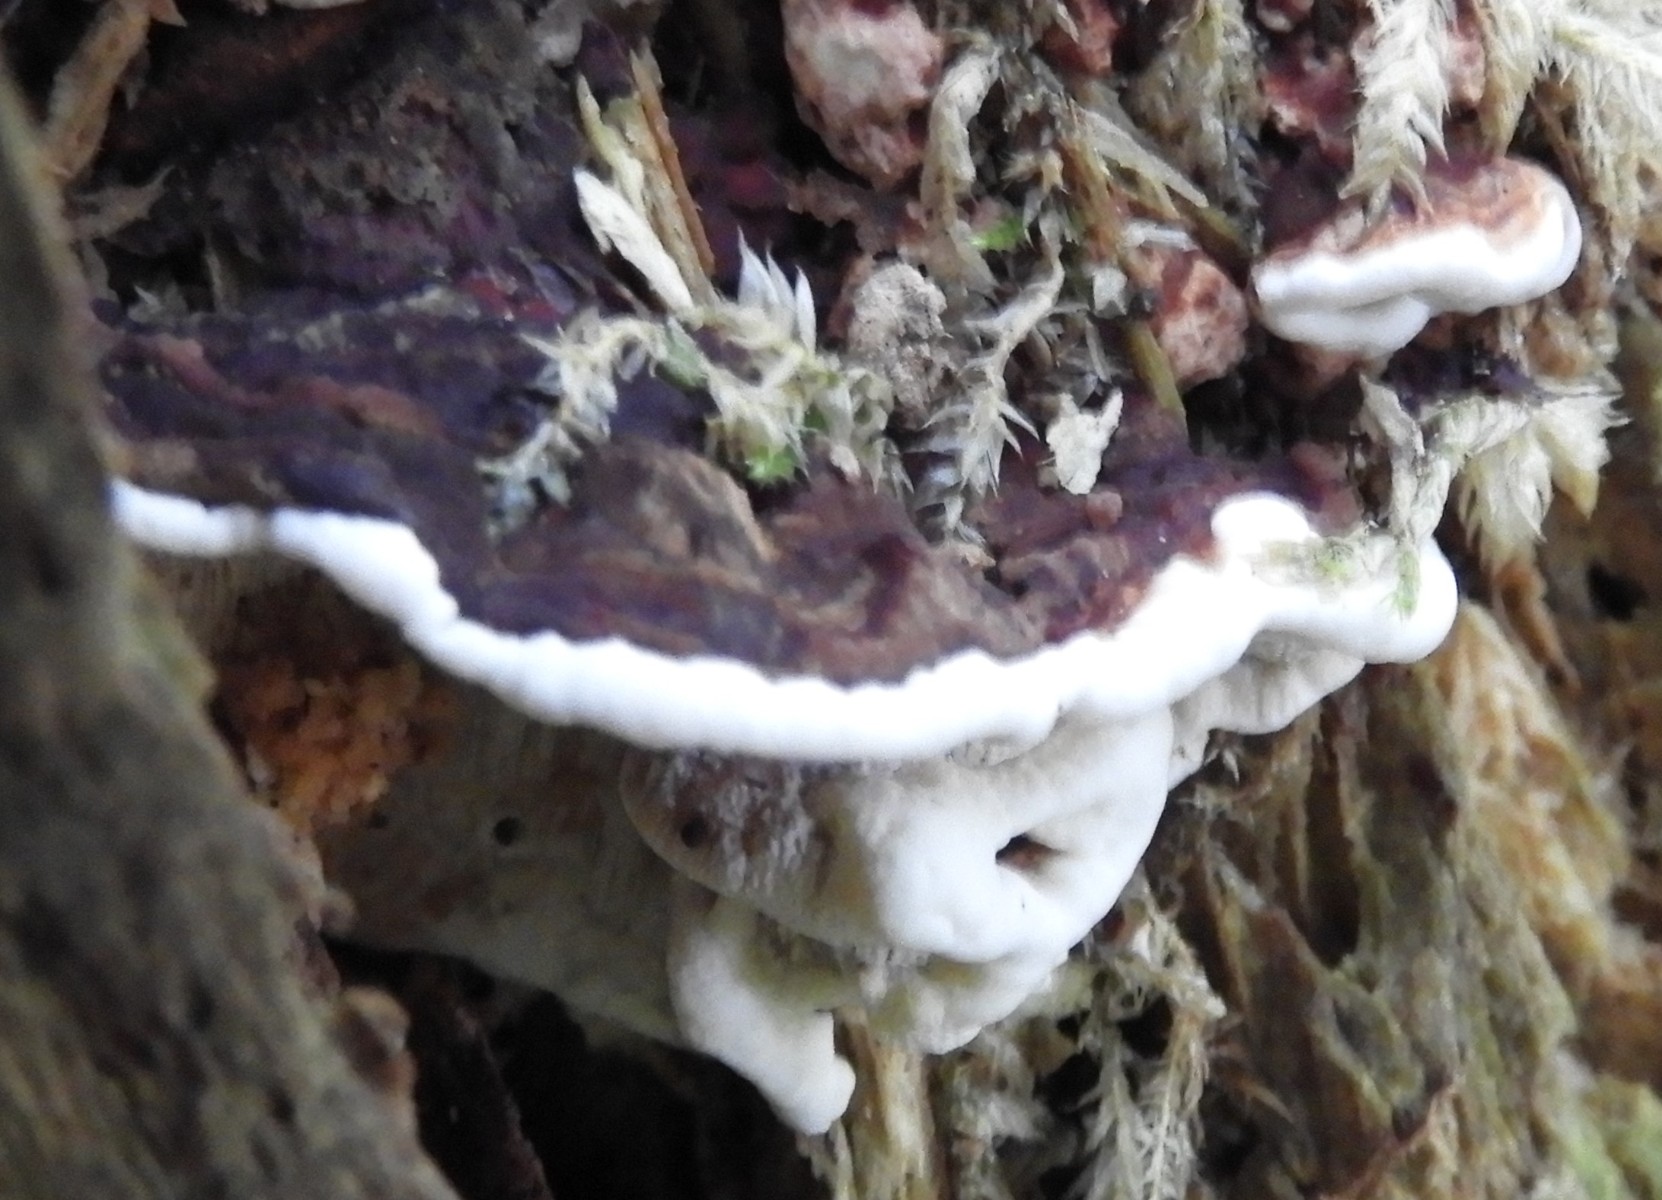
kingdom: Fungi
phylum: Basidiomycota
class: Agaricomycetes
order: Russulales
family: Bondarzewiaceae
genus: Heterobasidion
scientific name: Heterobasidion annosum
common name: almindelig rodfordærver
